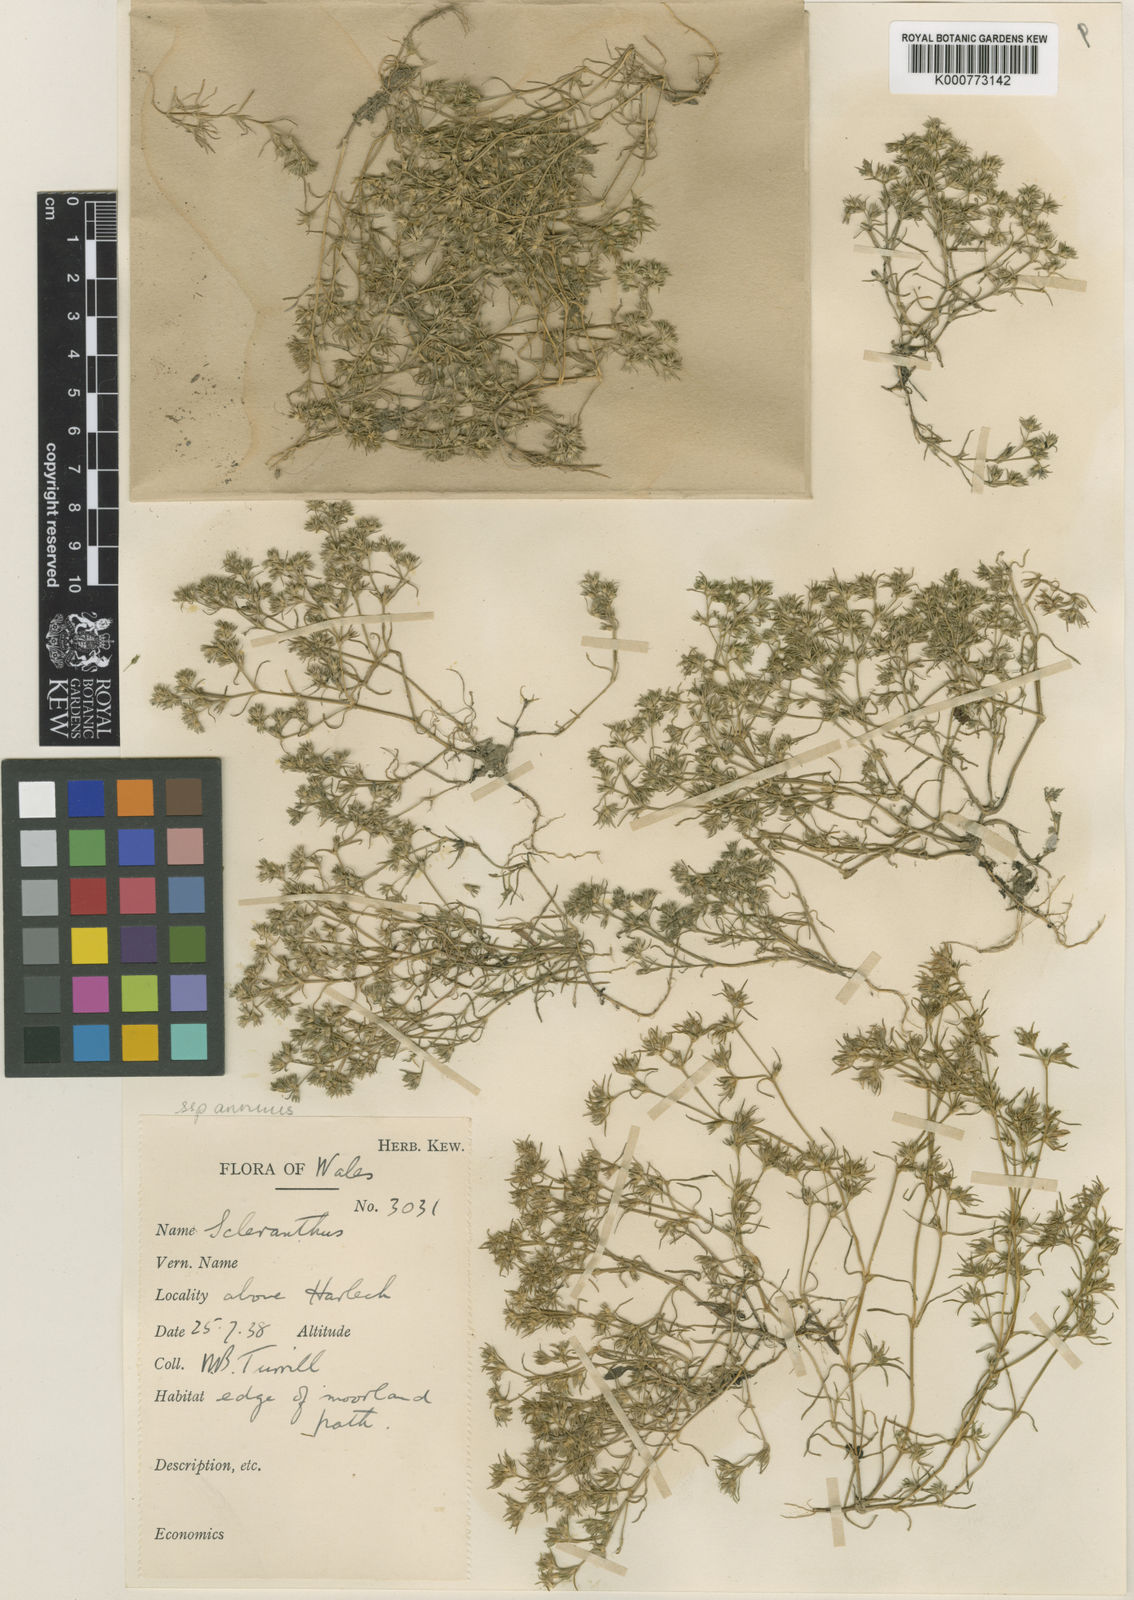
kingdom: Plantae
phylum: Tracheophyta
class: Magnoliopsida
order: Caryophyllales
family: Caryophyllaceae
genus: Scleranthus
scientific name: Scleranthus annuus
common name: Annual knawel
